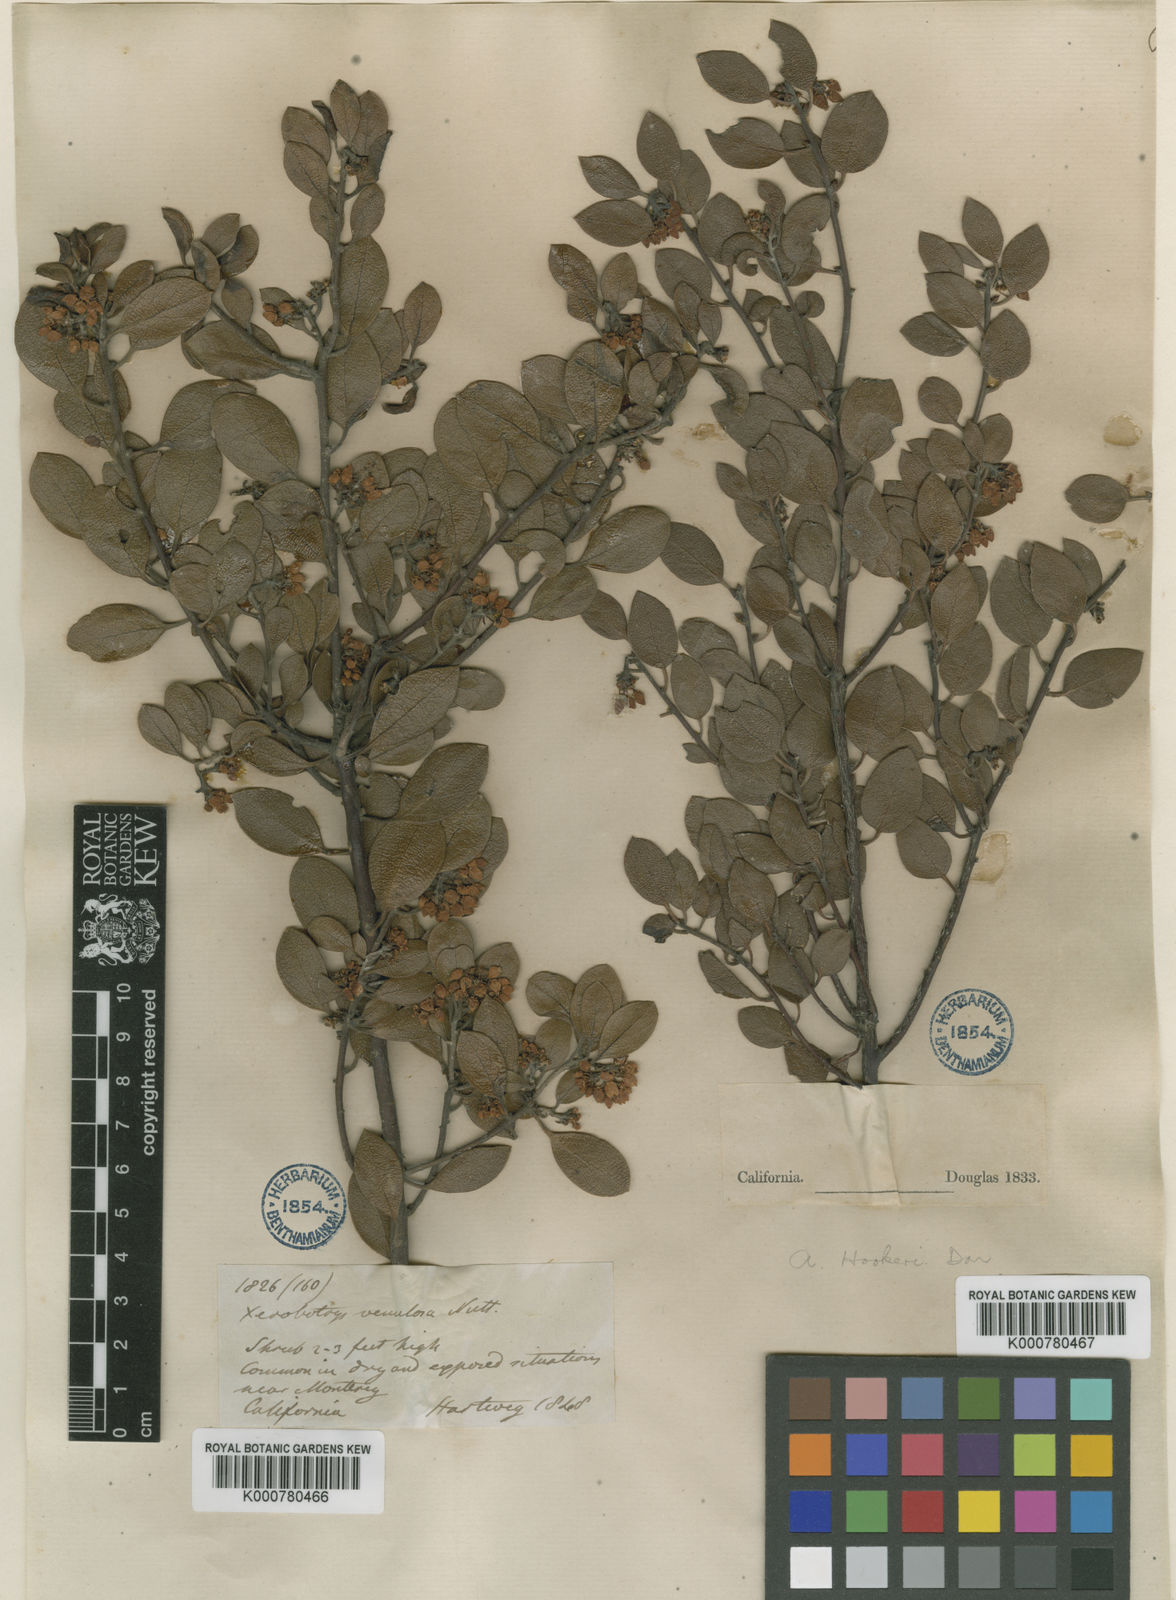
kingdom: Plantae
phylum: Tracheophyta
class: Magnoliopsida
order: Ericales
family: Ericaceae
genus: Arctostaphylos
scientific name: Arctostaphylos hookeri
